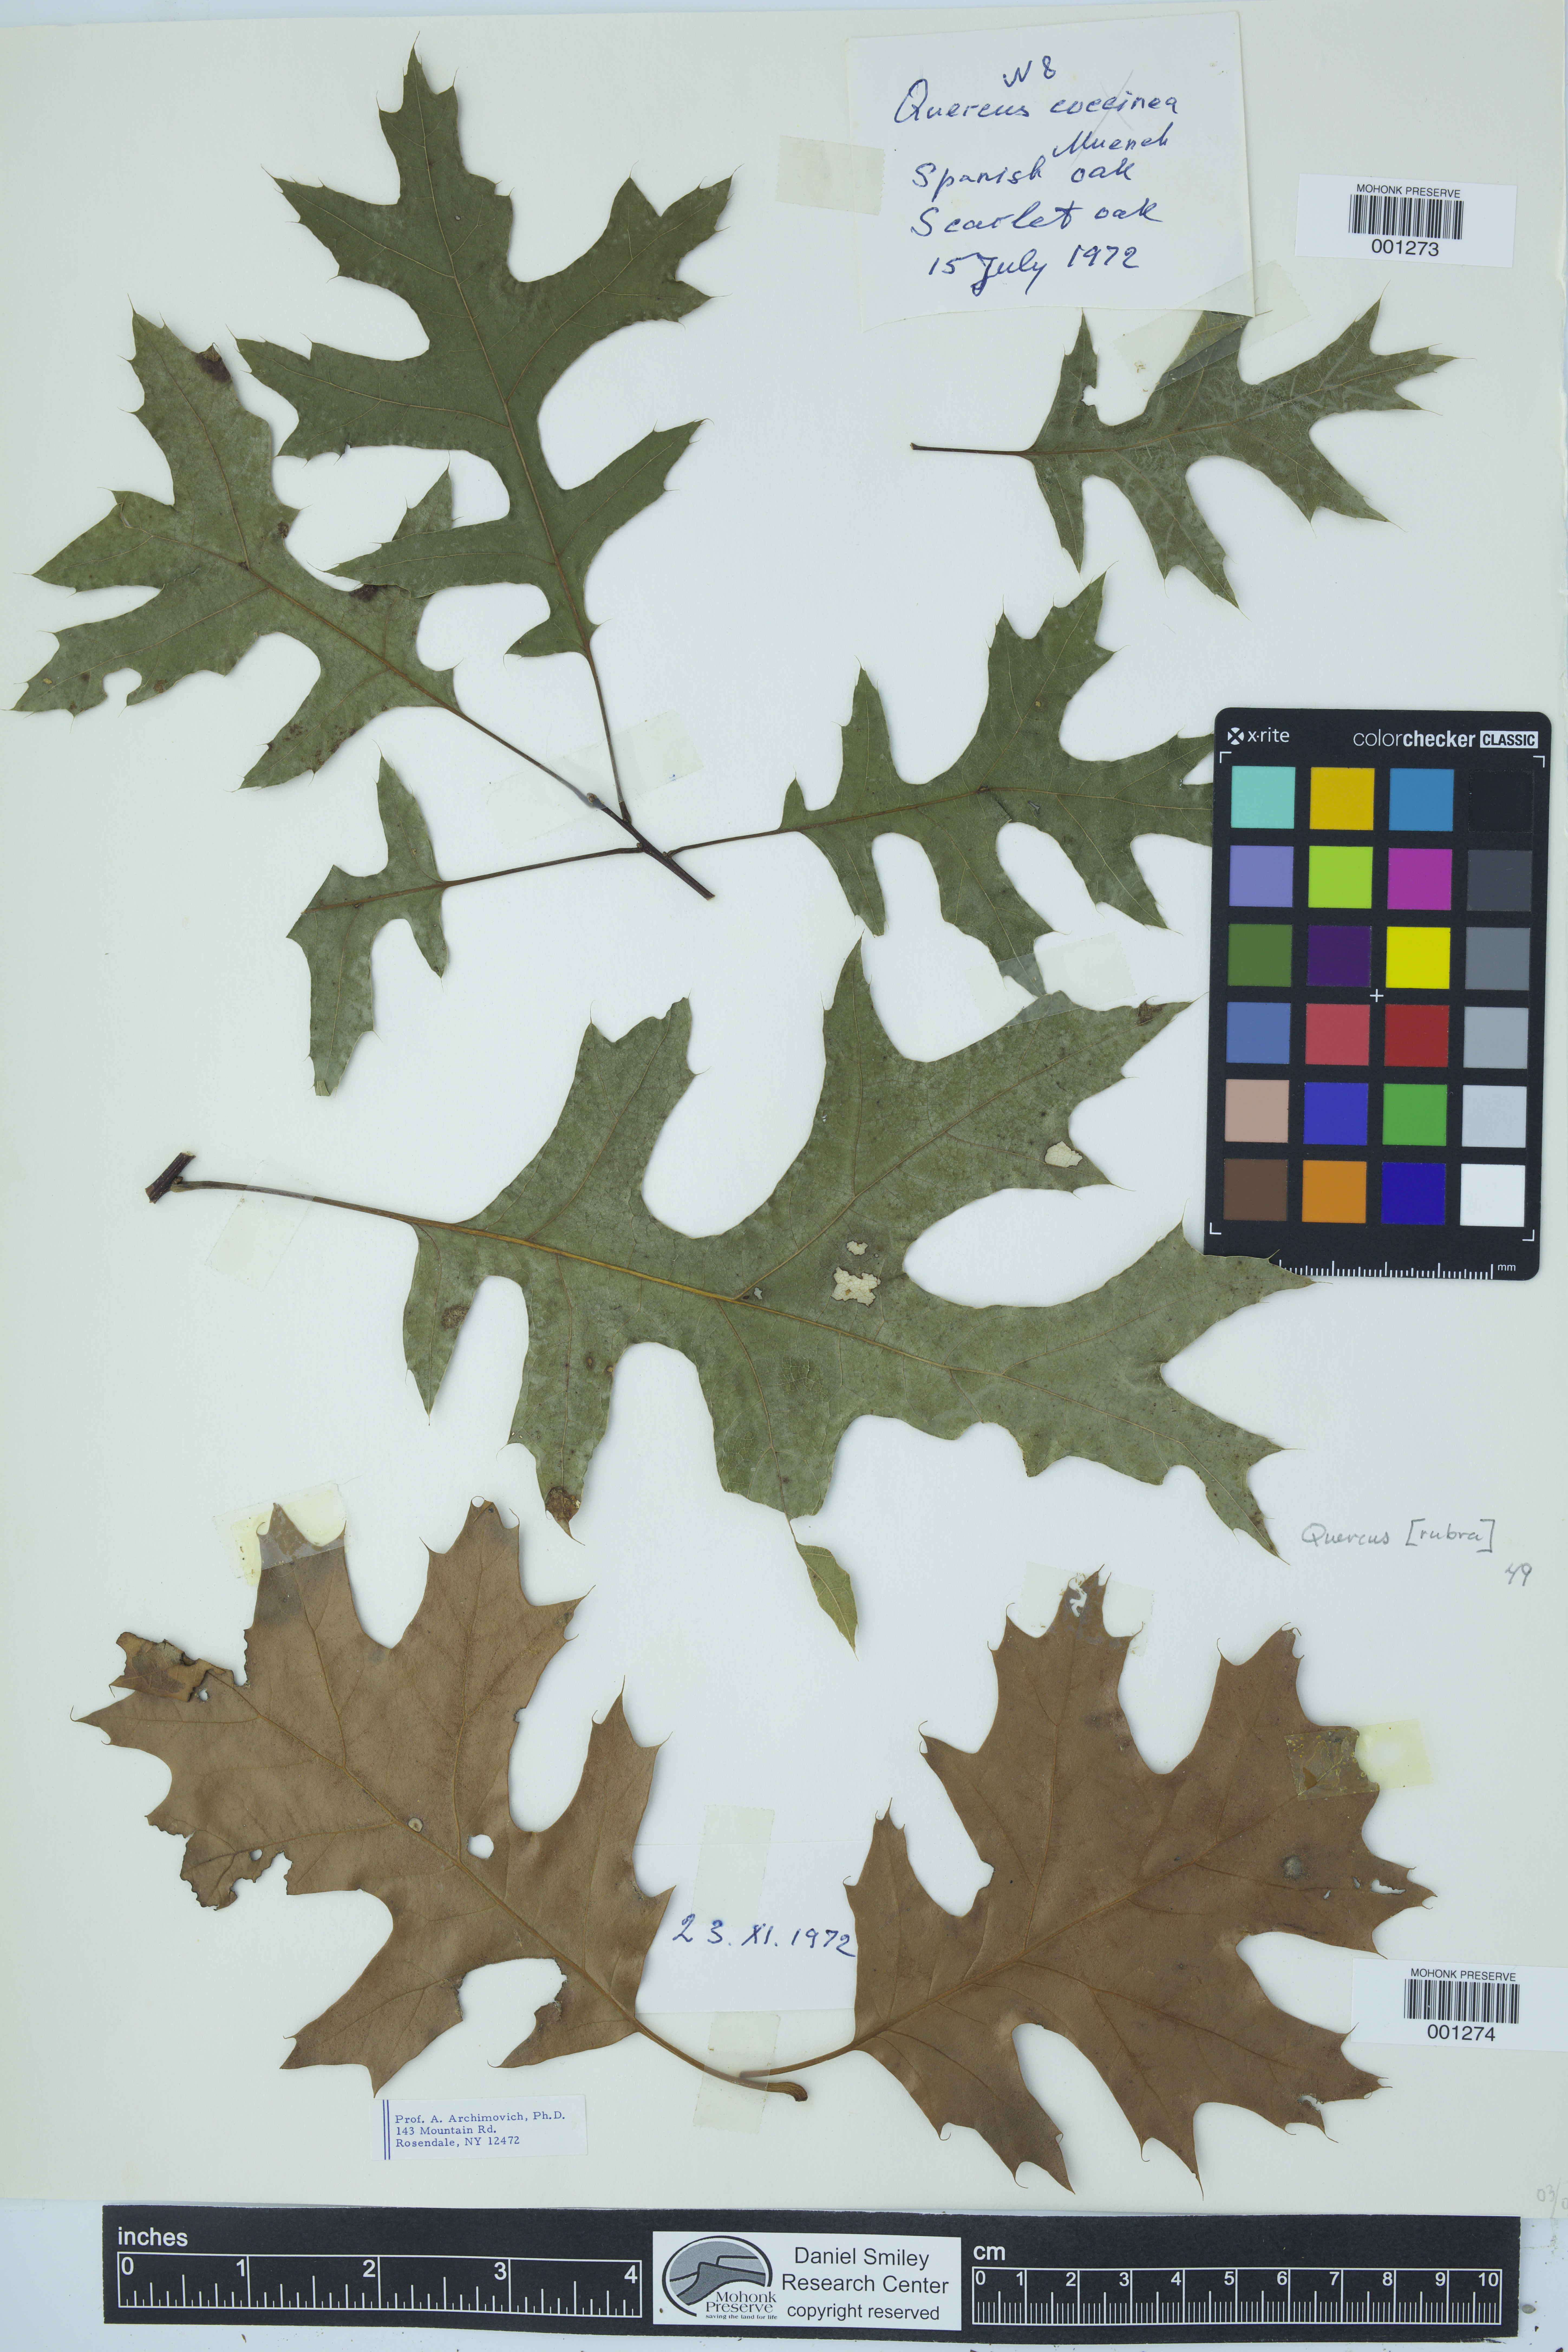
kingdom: Plantae
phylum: Tracheophyta
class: Magnoliopsida
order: Fagales
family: Fagaceae
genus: Quercus
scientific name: Quercus rubra
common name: Red oak
